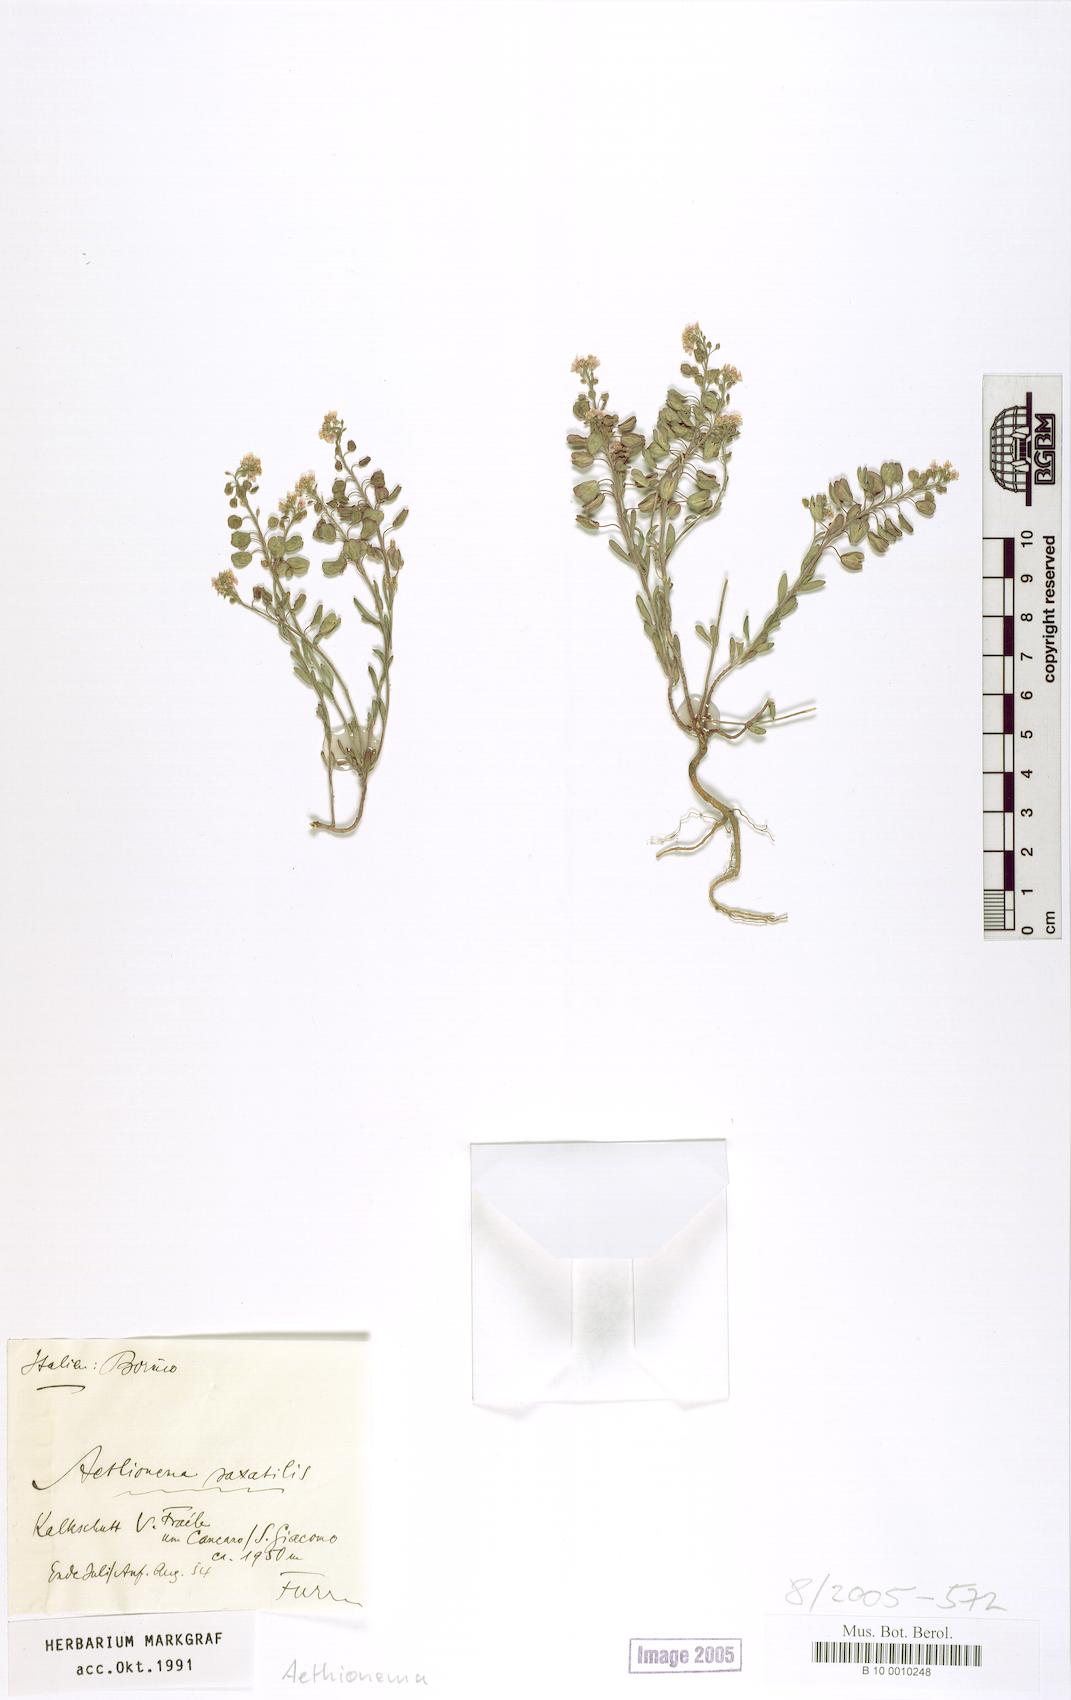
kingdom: Plantae
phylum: Tracheophyta
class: Magnoliopsida
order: Brassicales
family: Brassicaceae
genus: Aethionema
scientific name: Aethionema saxatile
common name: Burnt candytuft
